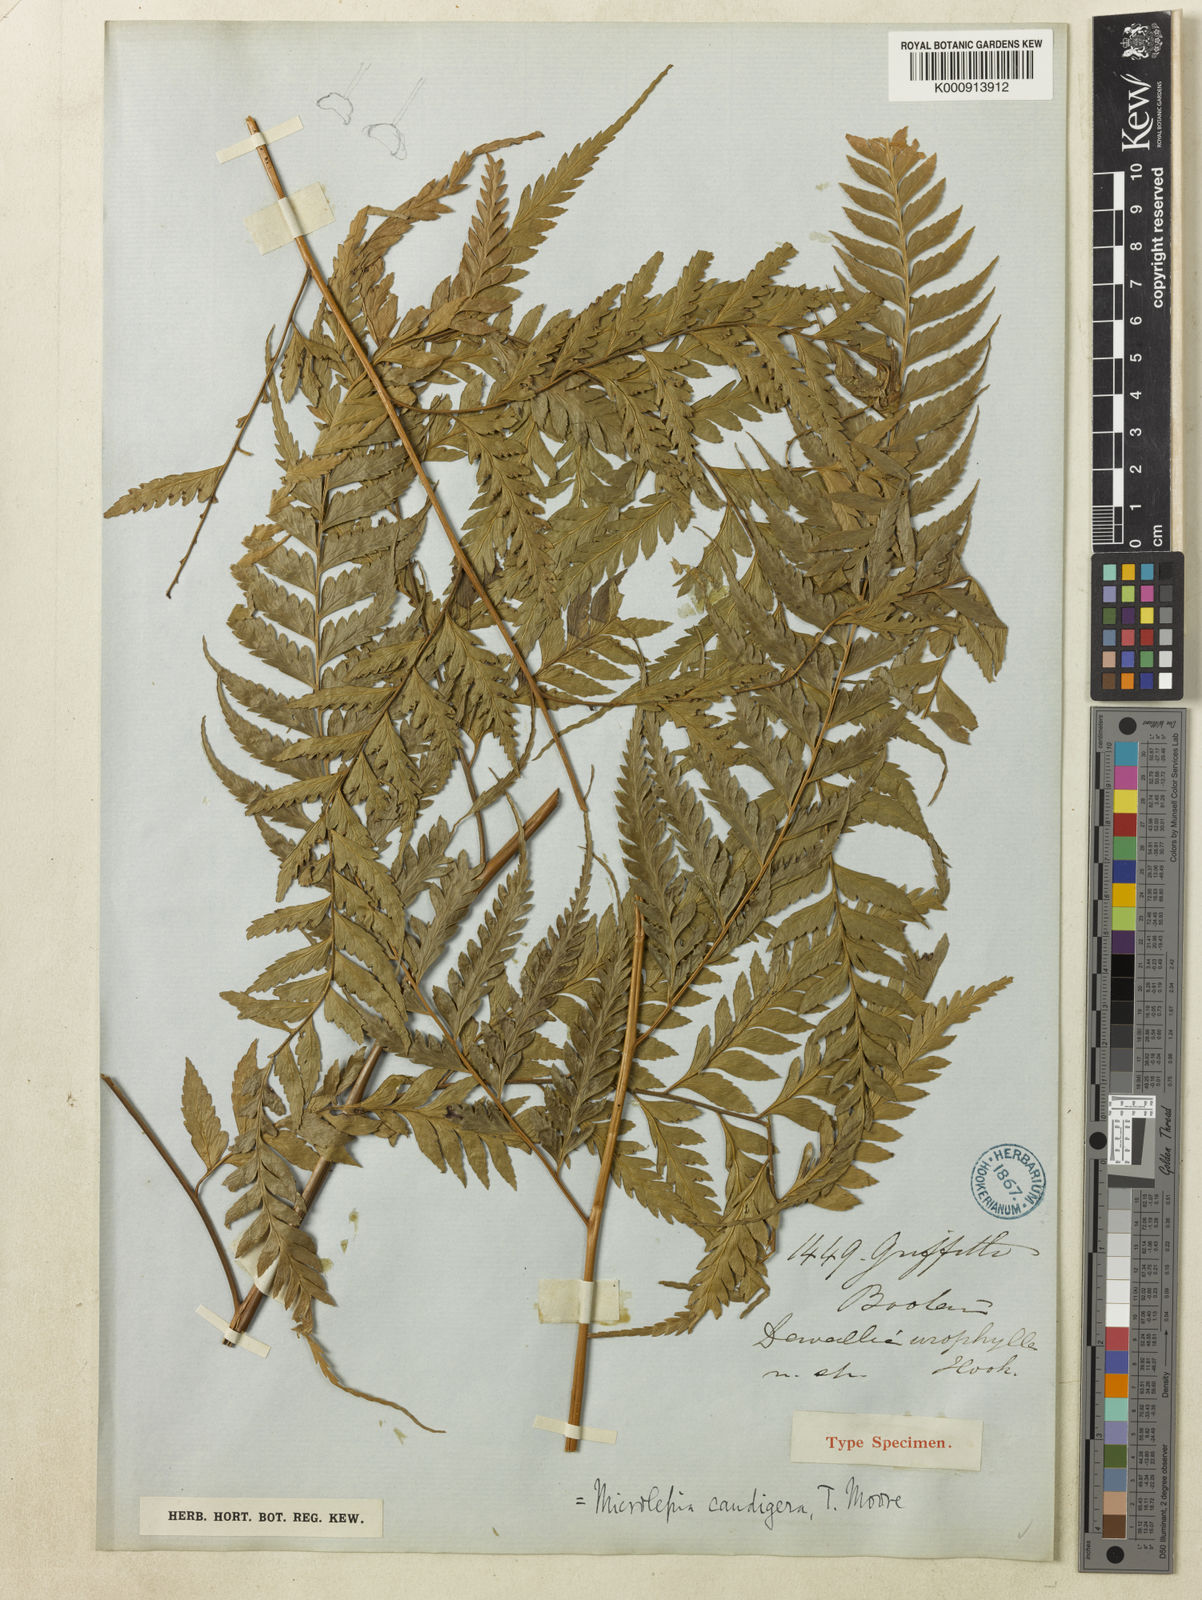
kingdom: Plantae
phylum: Tracheophyta
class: Polypodiopsida
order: Polypodiales
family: Dennstaedtiaceae
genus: Microlepia
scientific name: Microlepia caudigera
